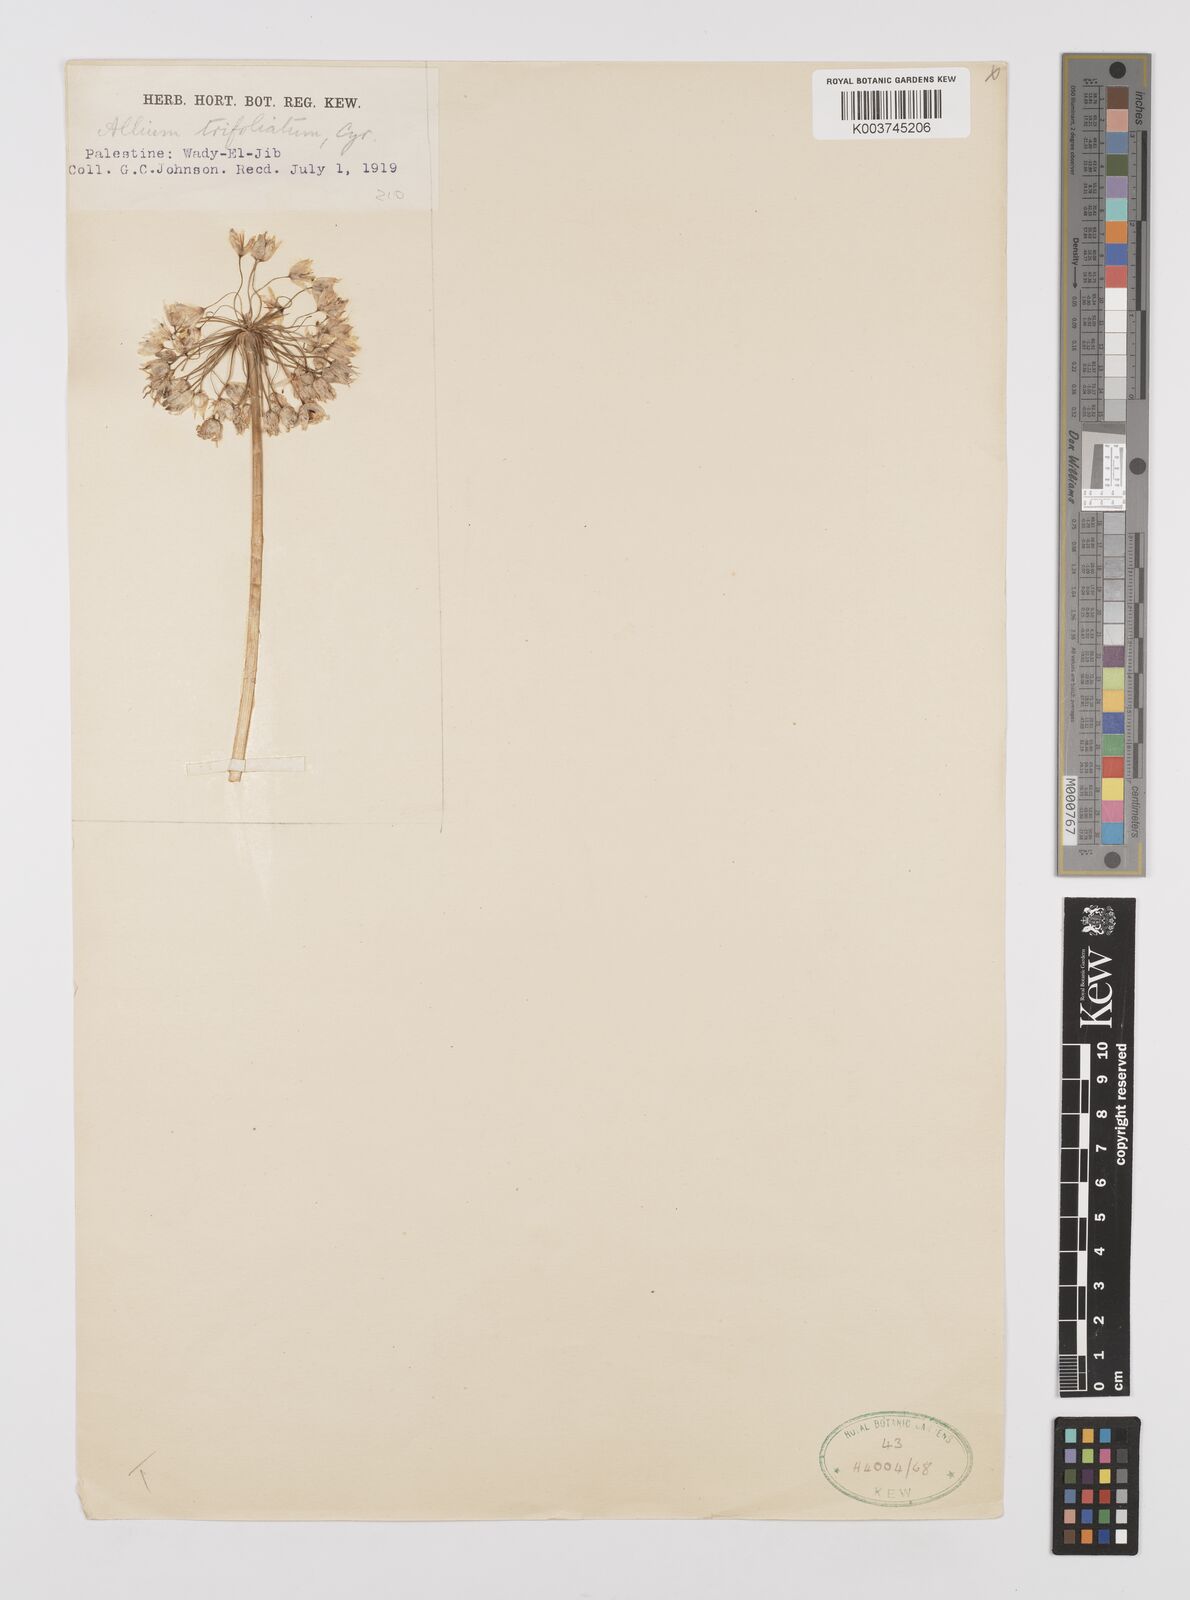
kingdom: Plantae
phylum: Tracheophyta
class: Liliopsida
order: Asparagales
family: Amaryllidaceae
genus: Allium
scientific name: Allium trifoliatum
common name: Pink garlic
